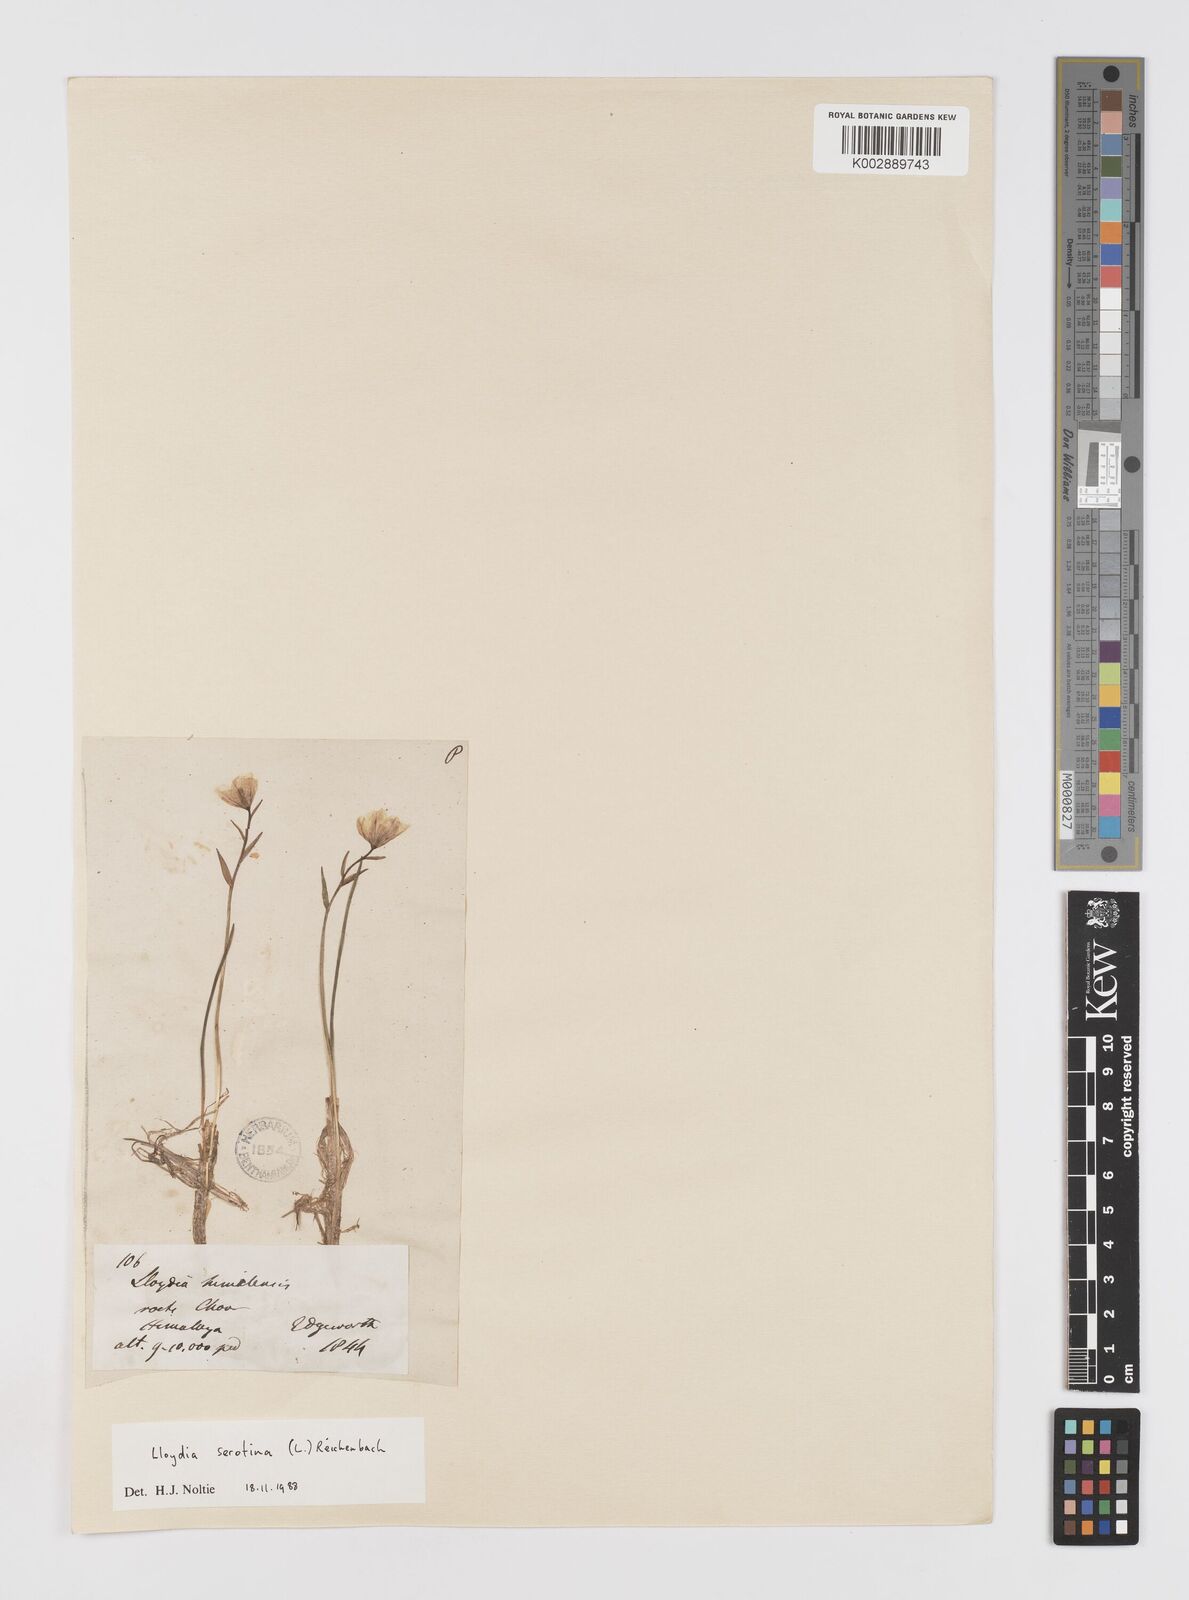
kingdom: Plantae
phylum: Tracheophyta
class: Liliopsida
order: Liliales
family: Liliaceae
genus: Gagea
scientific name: Gagea serotina
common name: Snowdon lily
